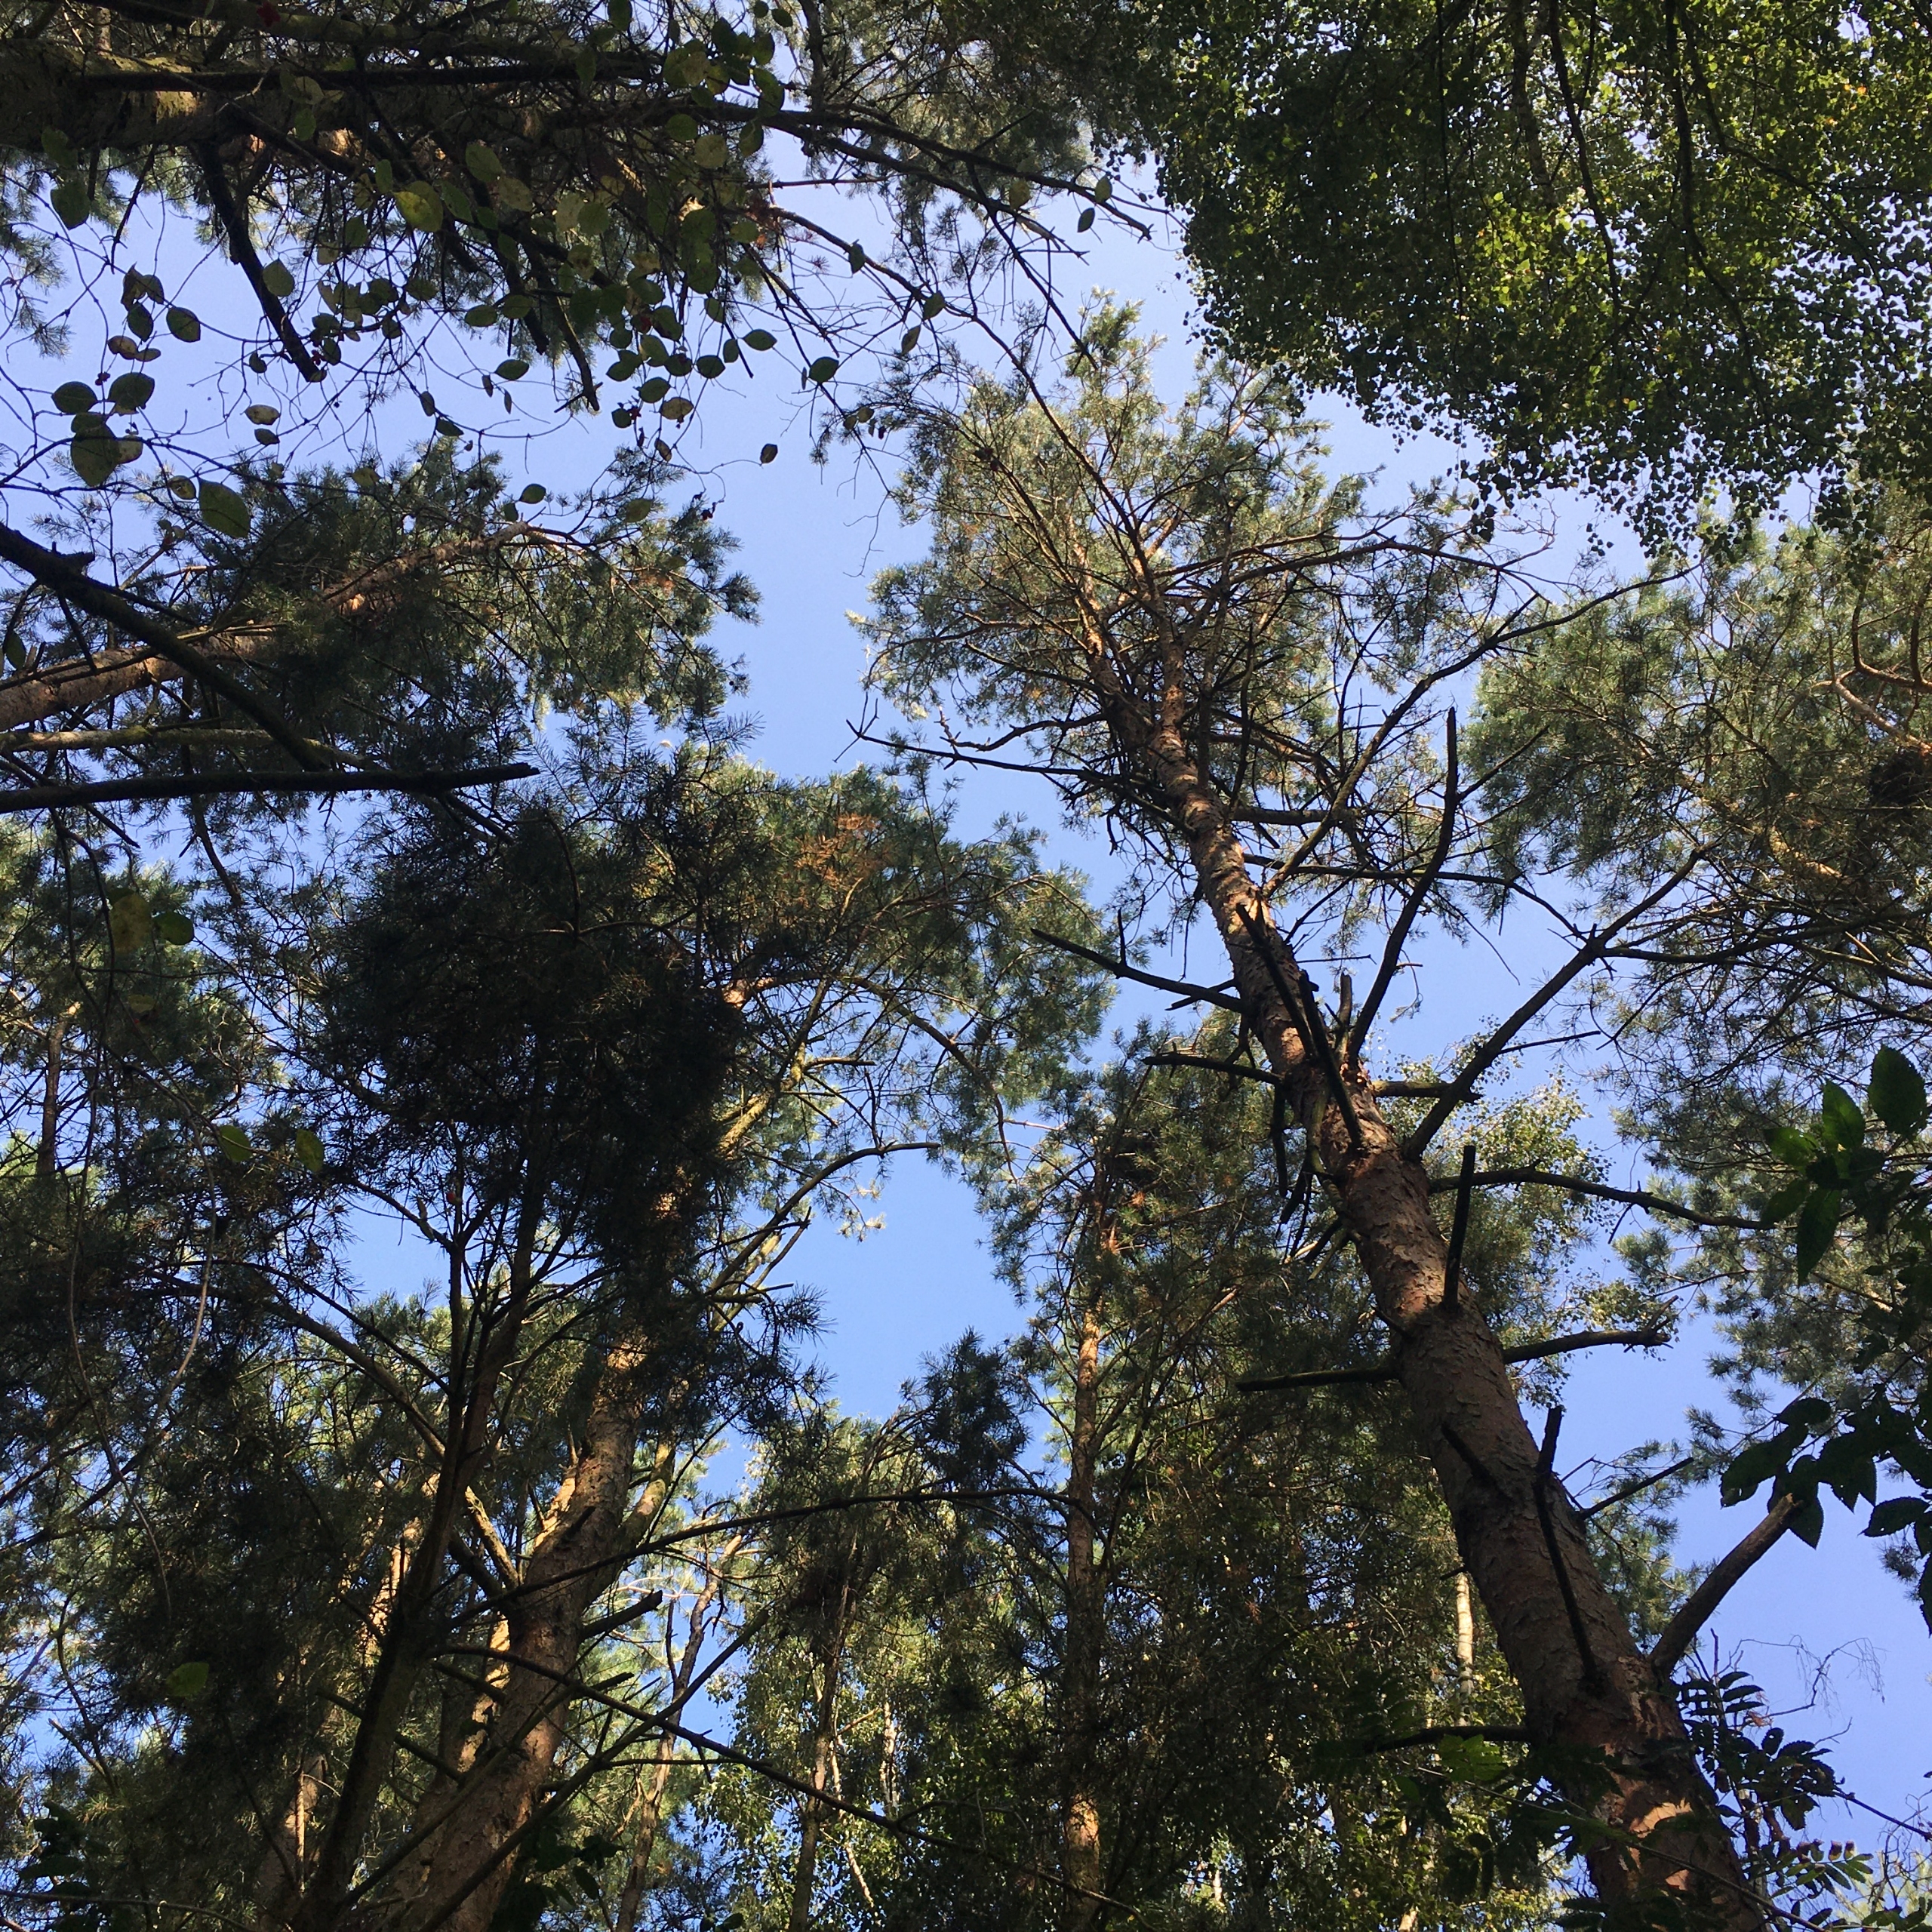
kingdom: Animalia
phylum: Chordata
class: Mammalia
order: Rodentia
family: Sciuridae
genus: Sciurus
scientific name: Sciurus vulgaris
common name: Egern
